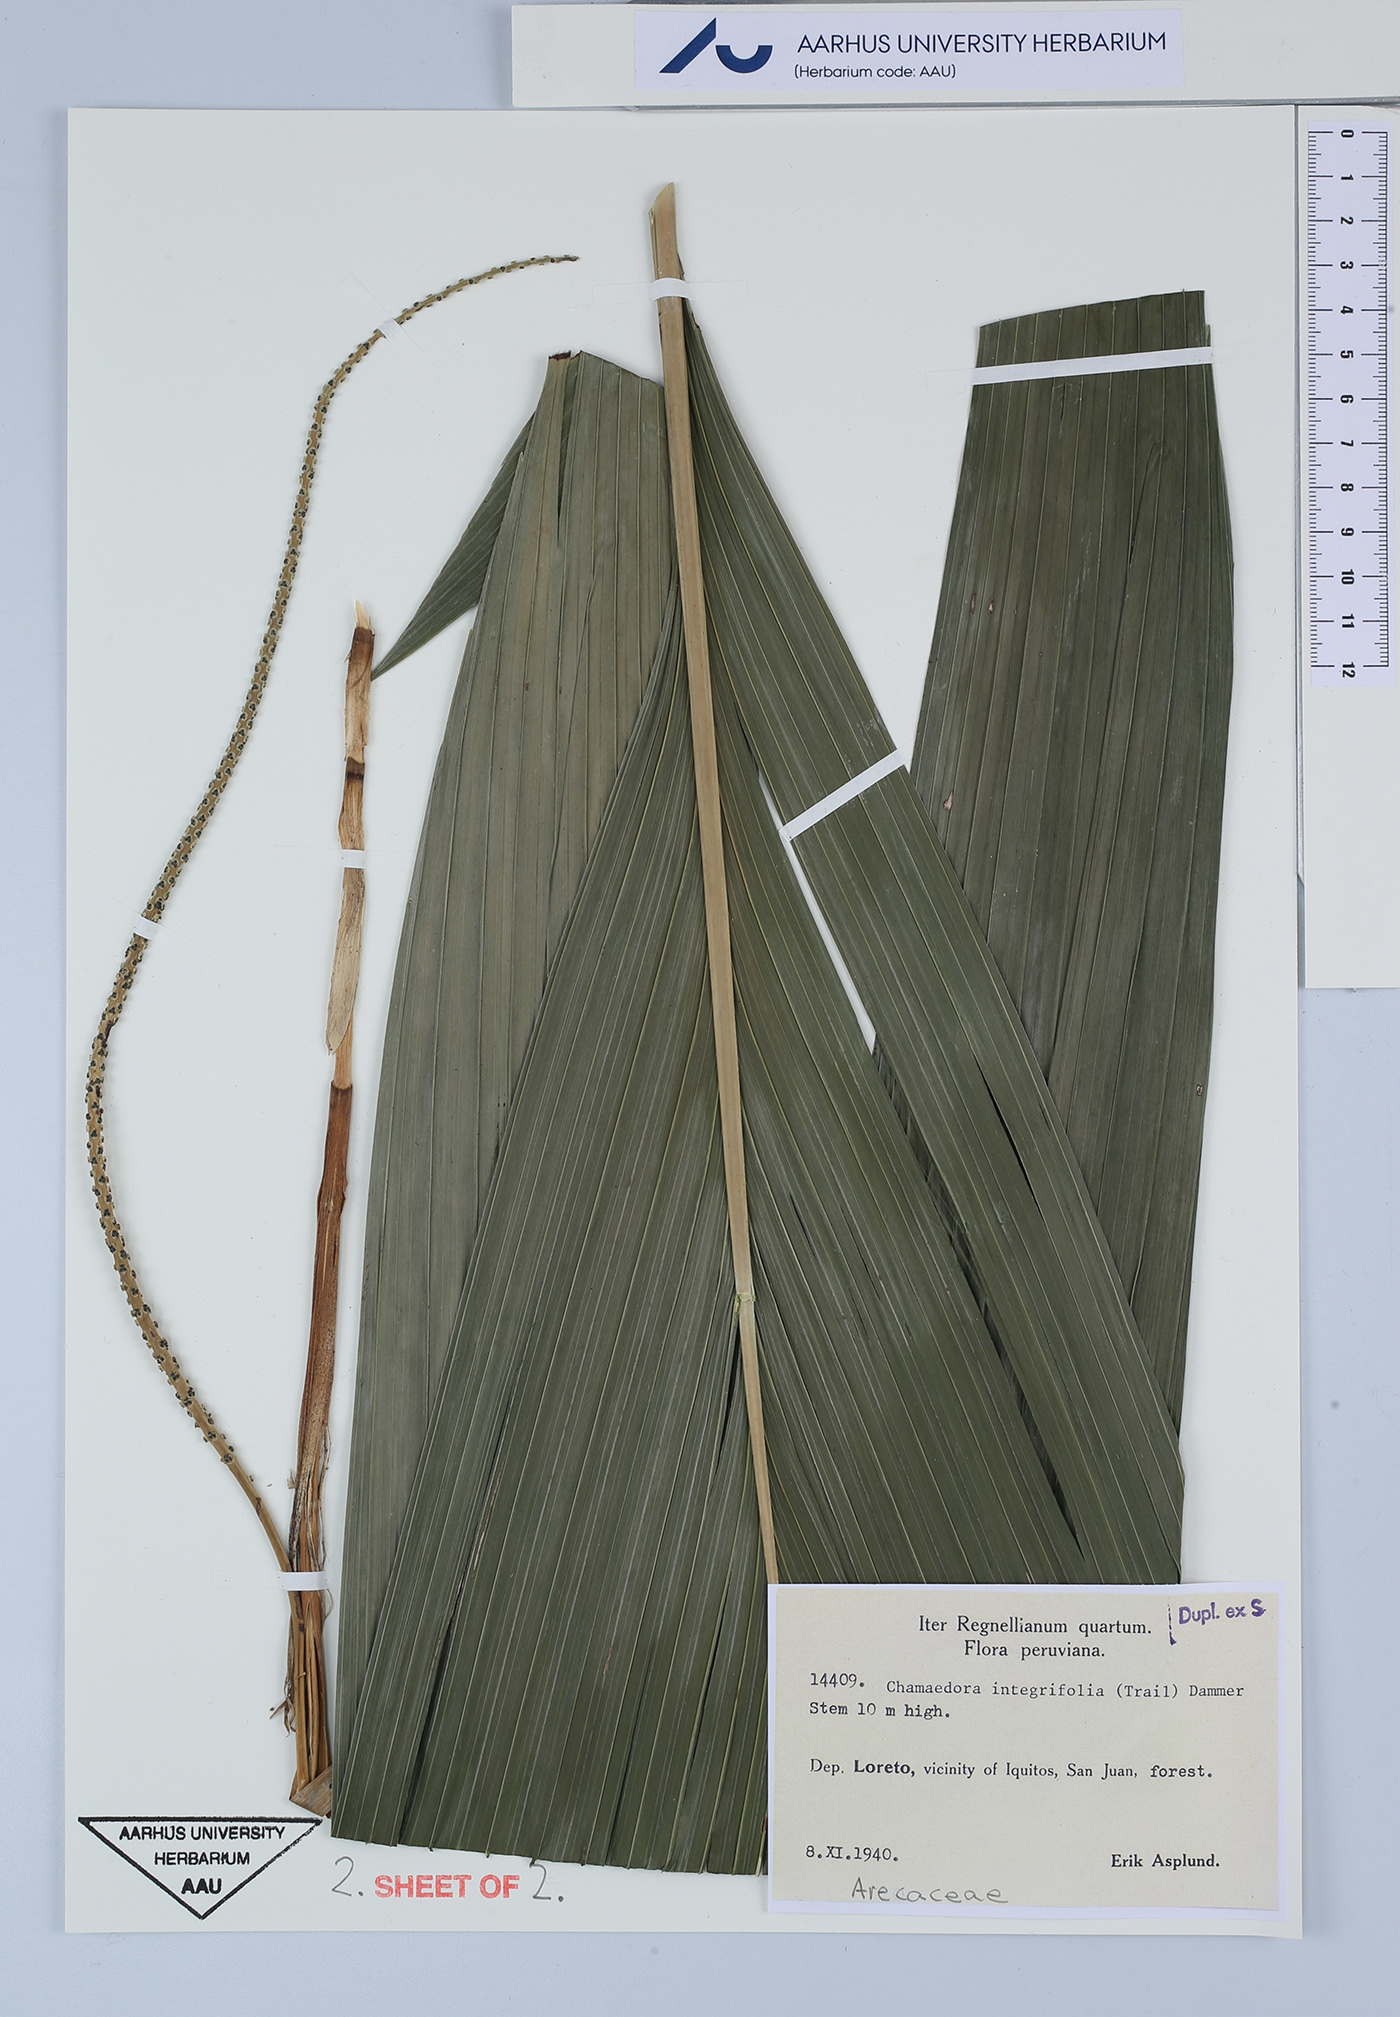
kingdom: Plantae
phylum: Tracheophyta
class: Liliopsida
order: Arecales
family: Arecaceae
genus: Chamaedorea
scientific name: Chamaedorea pauciflora
